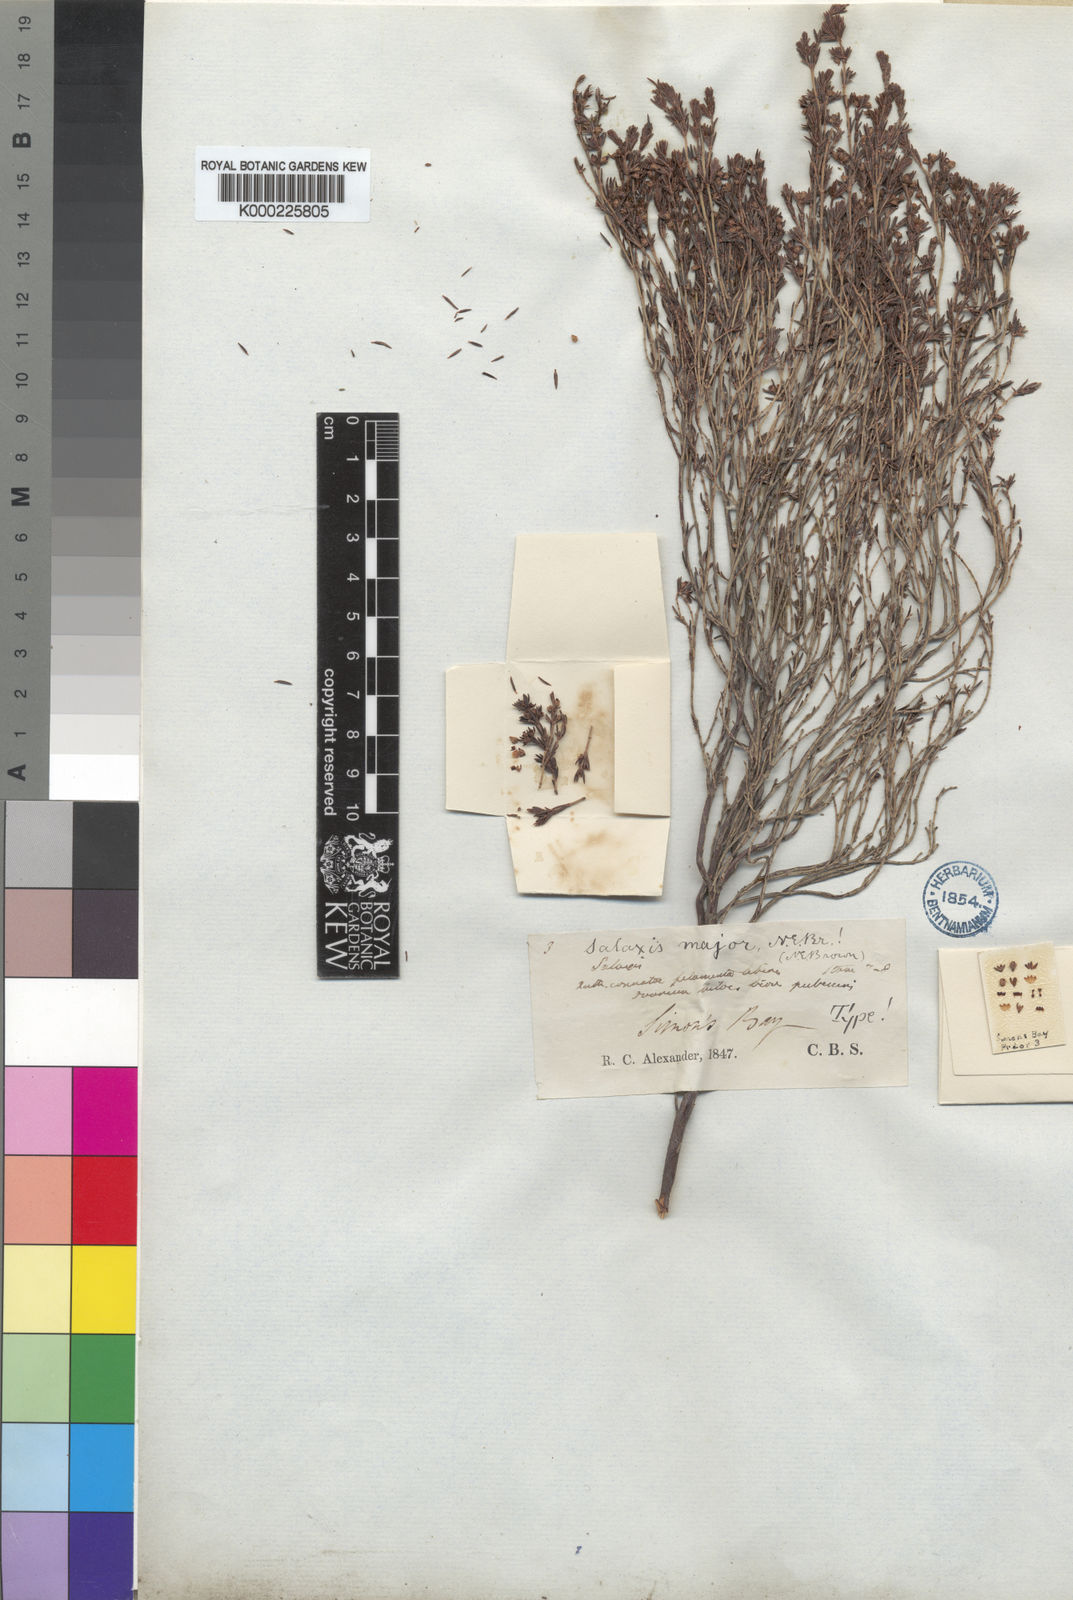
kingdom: Plantae
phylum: Tracheophyta
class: Magnoliopsida
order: Ericales
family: Ericaceae
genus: Erica
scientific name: Erica axillaris
